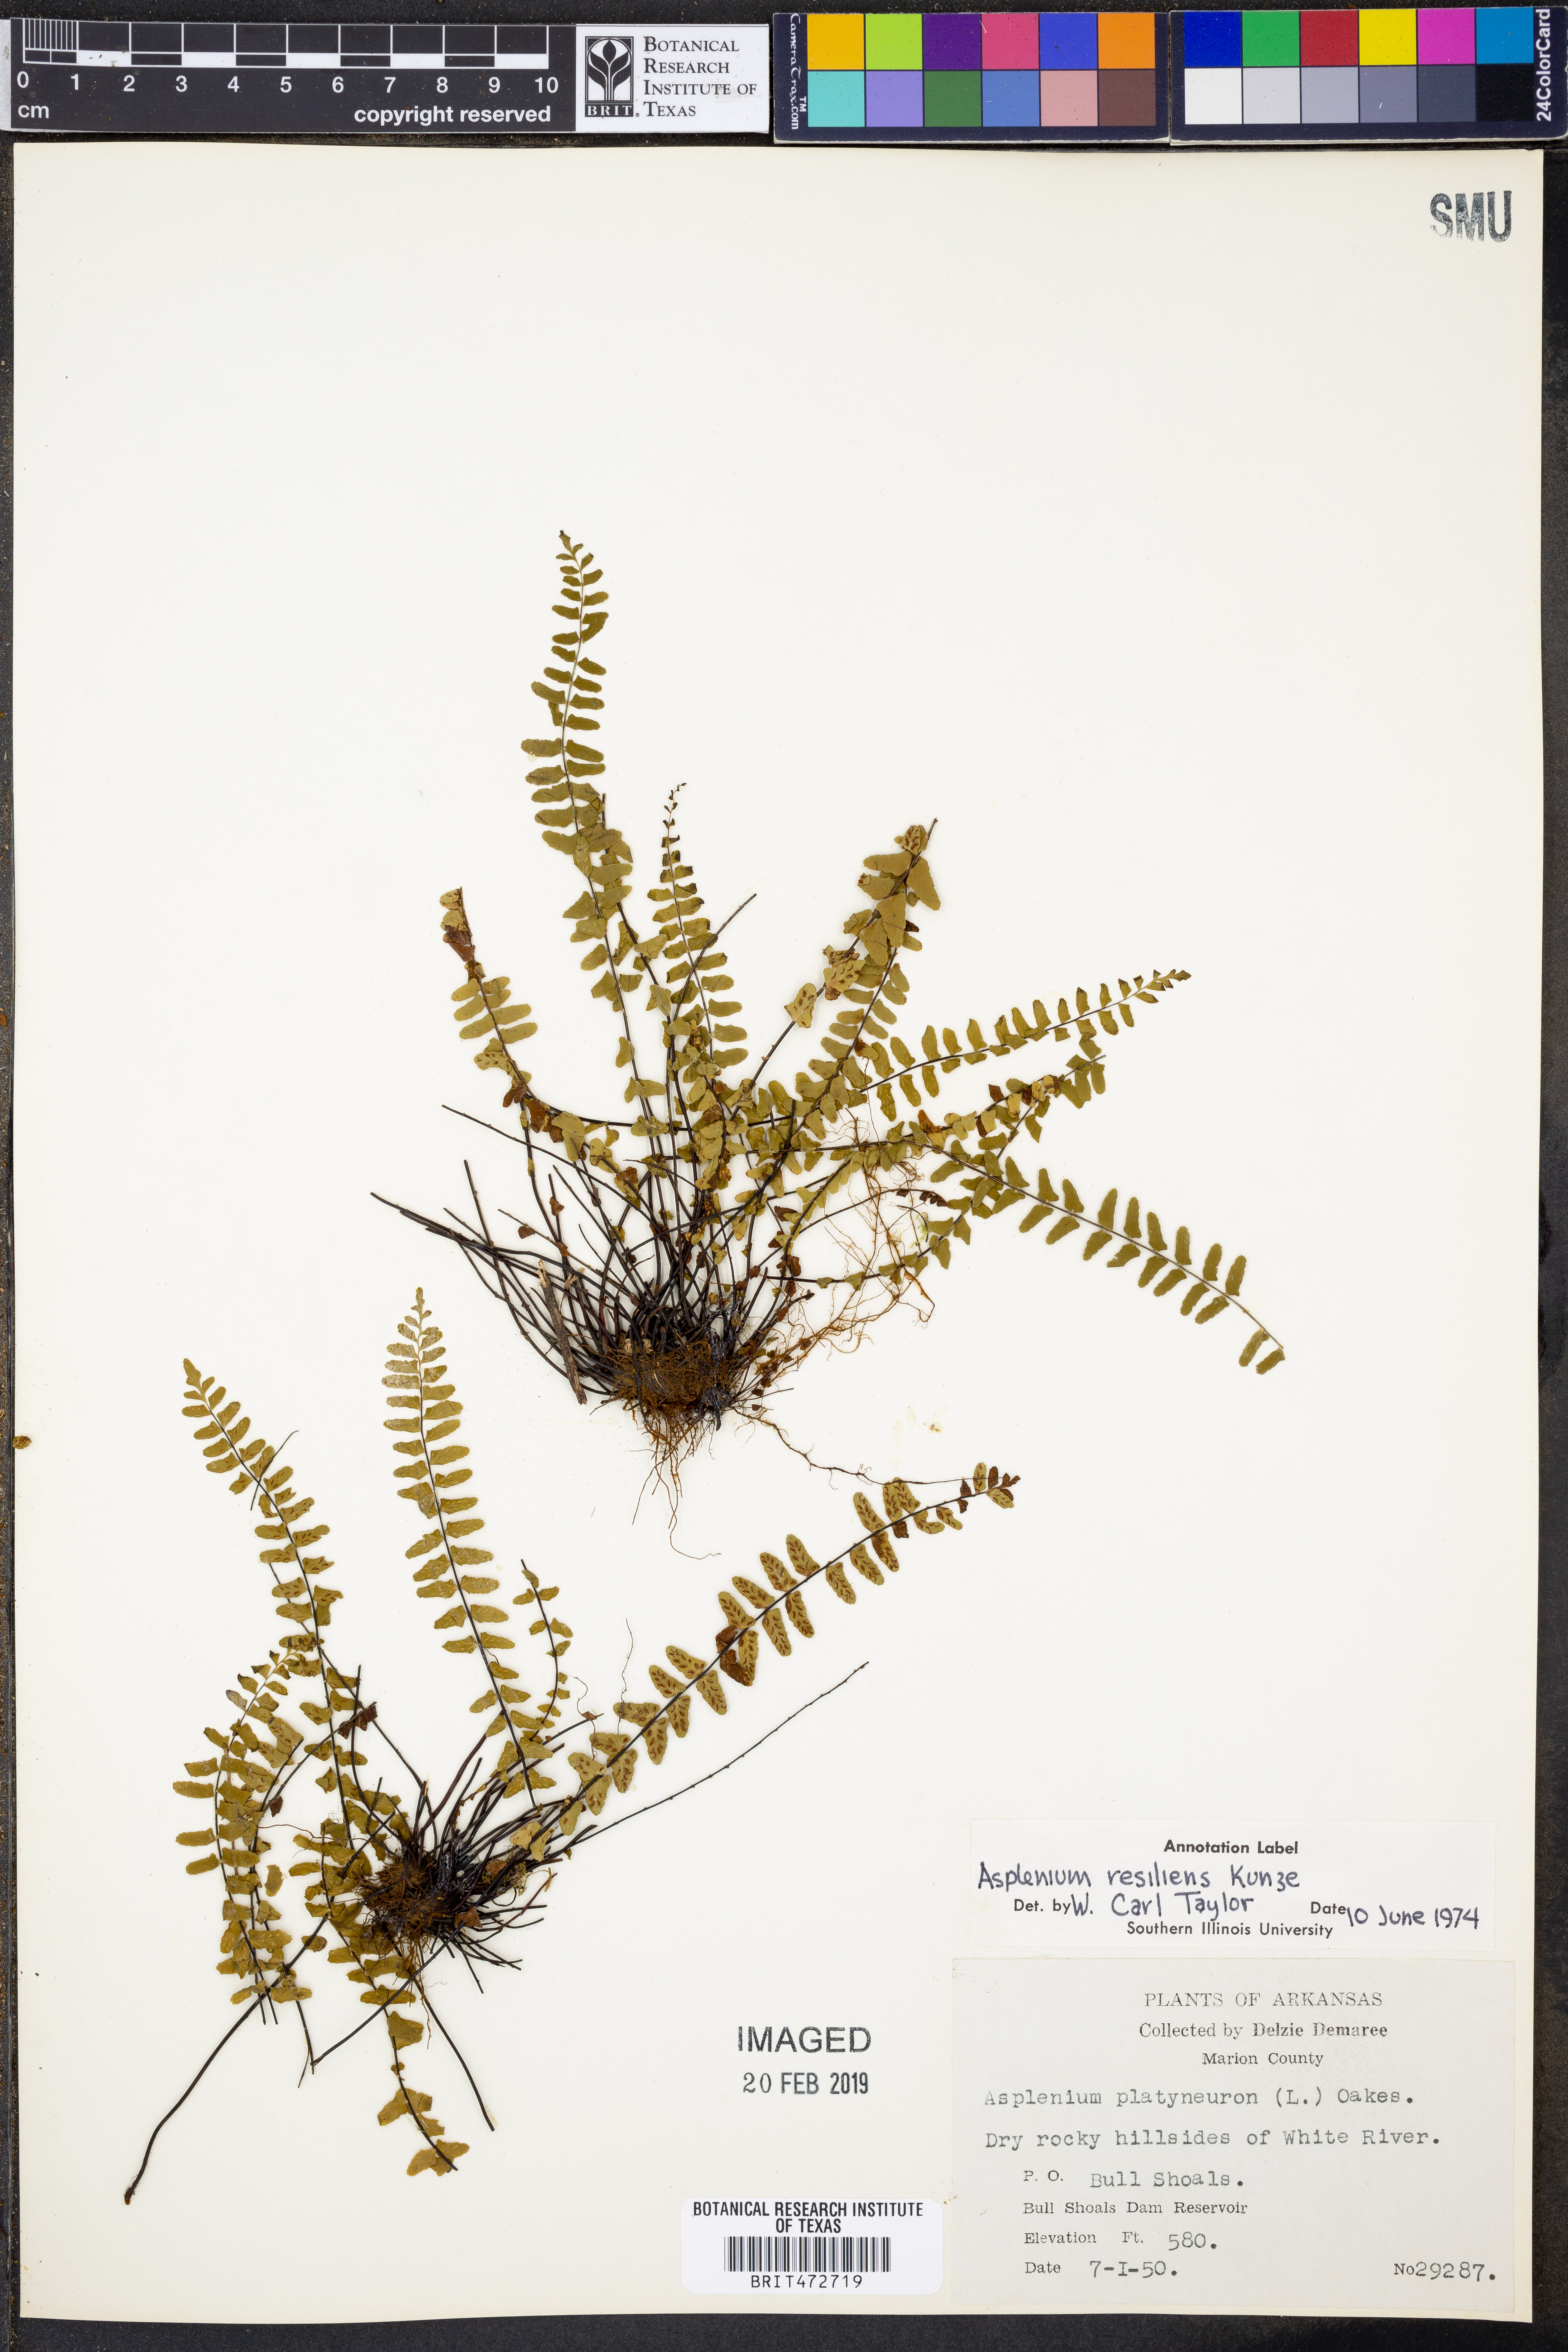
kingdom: Plantae
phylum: Tracheophyta
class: Polypodiopsida
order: Polypodiales
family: Aspleniaceae
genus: Asplenium
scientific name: Asplenium resiliens
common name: Blackstem spleenwort
